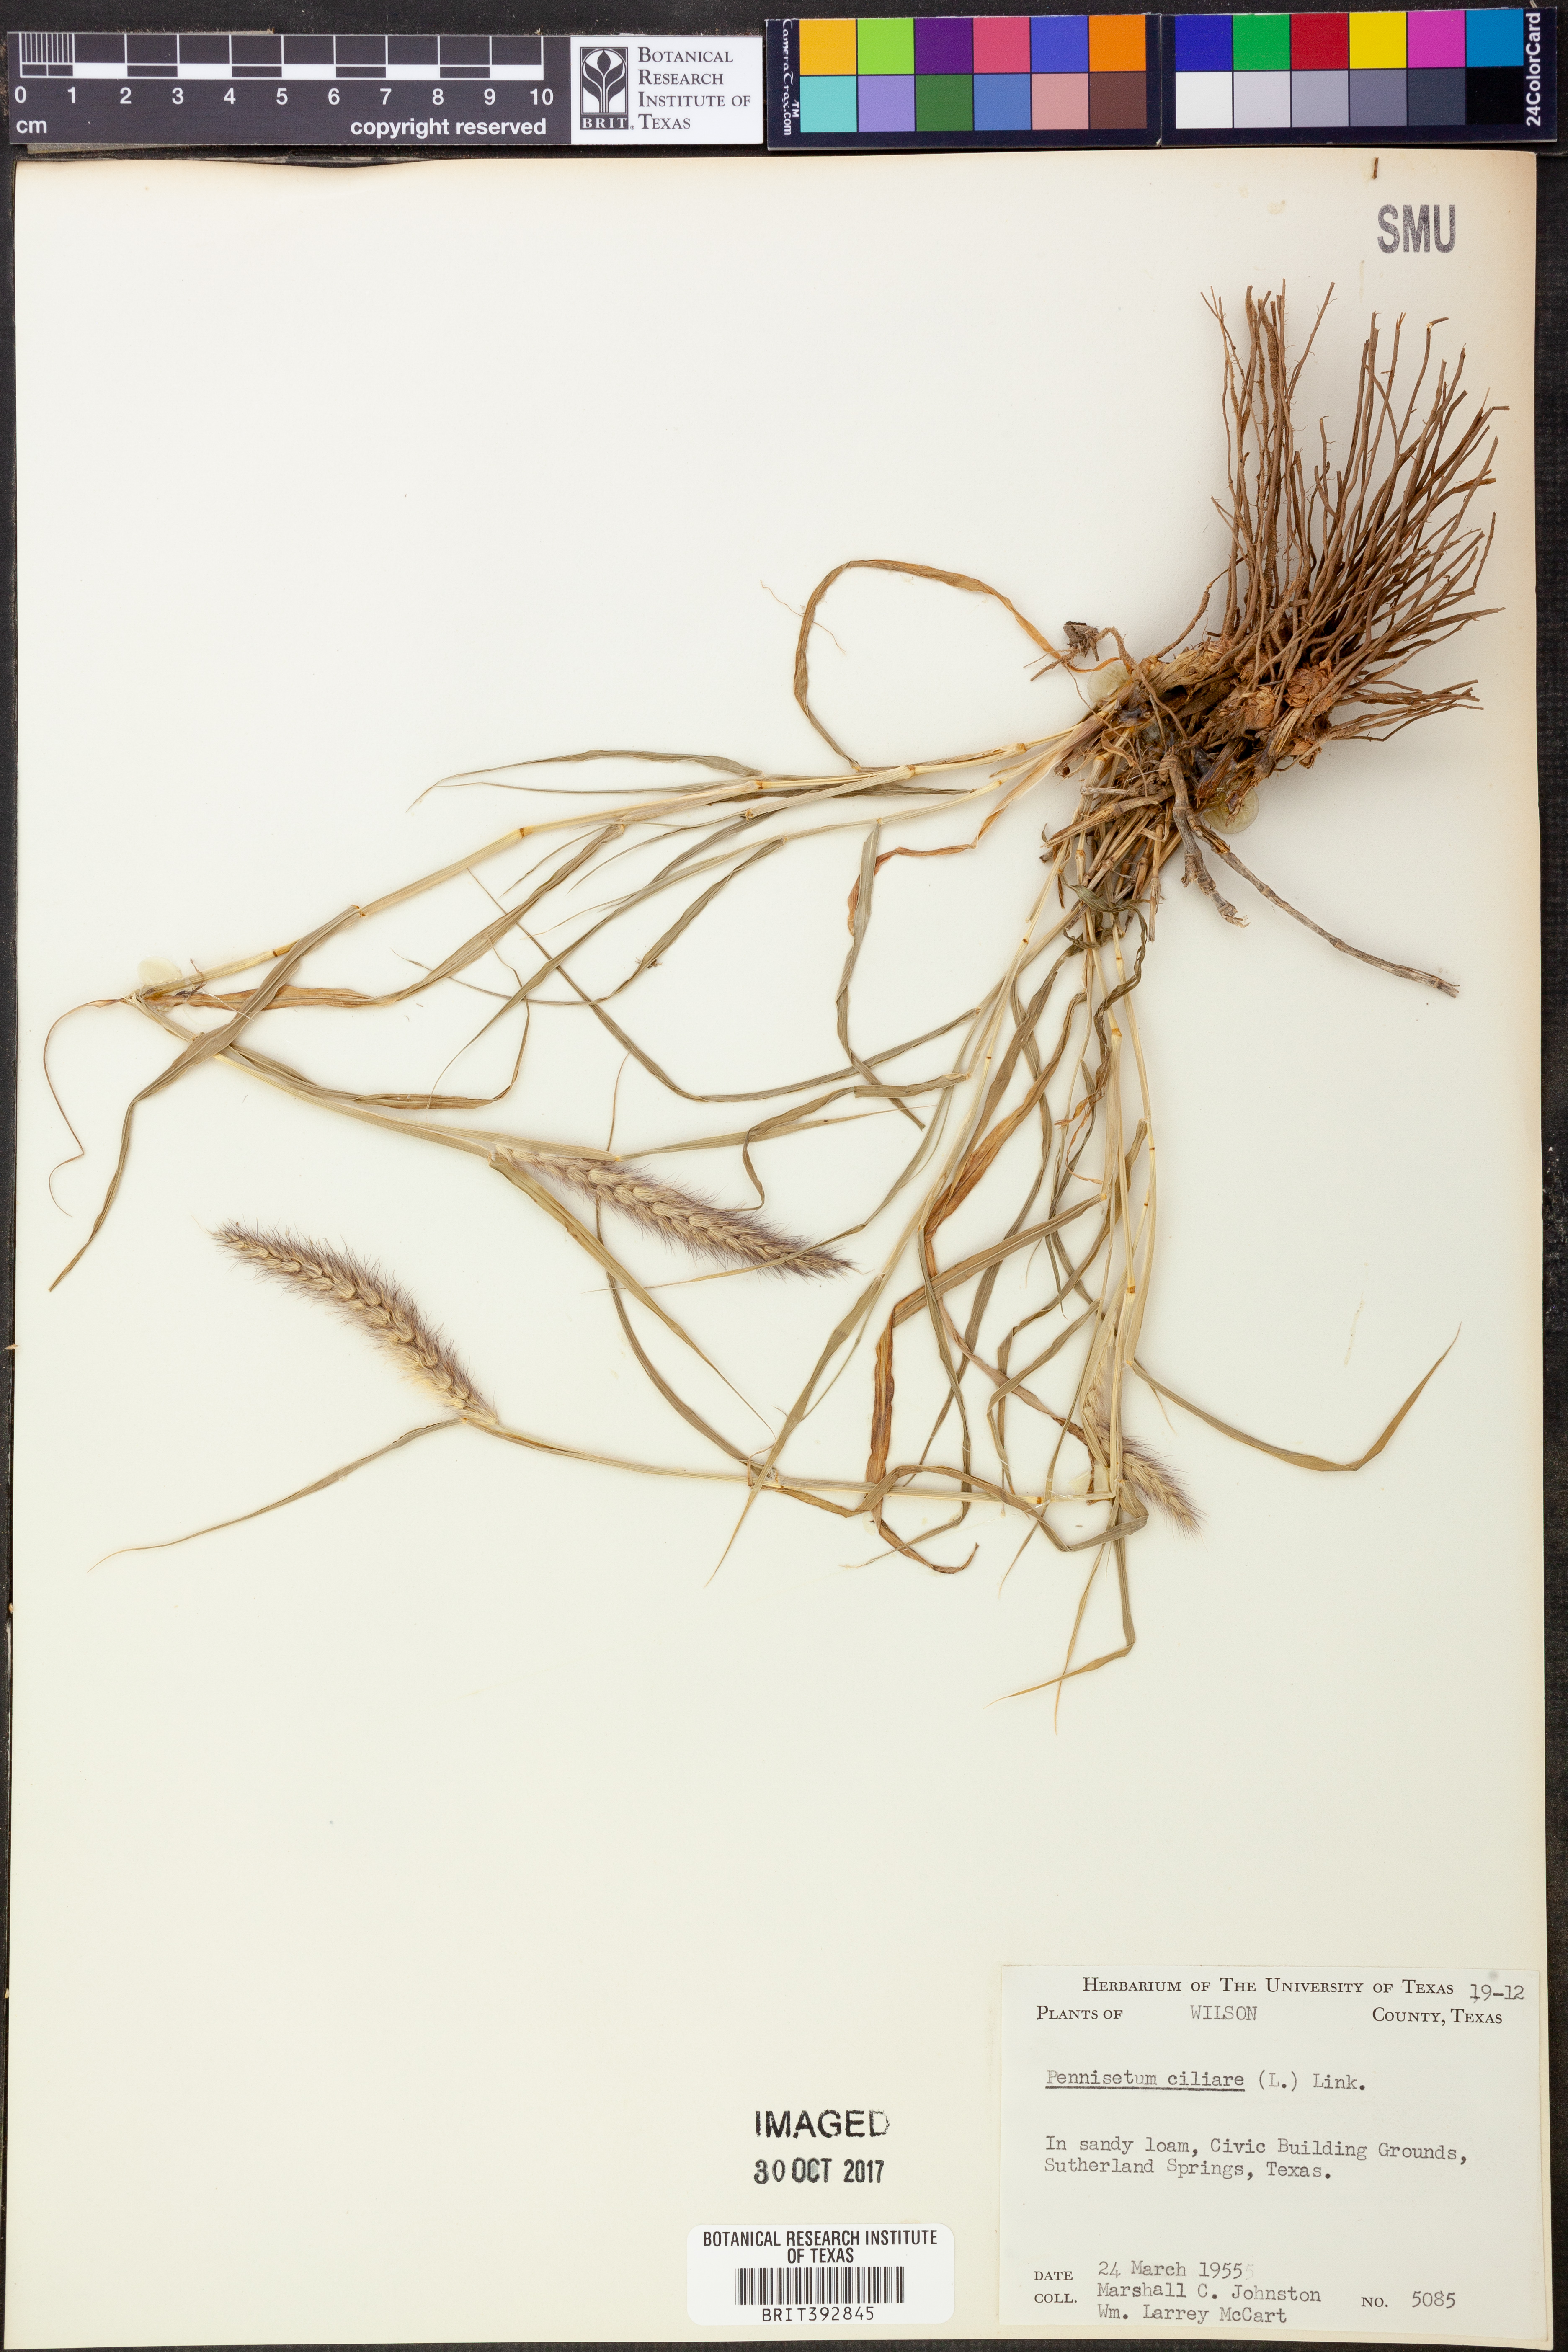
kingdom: Plantae
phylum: Tracheophyta
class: Liliopsida
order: Poales
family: Poaceae
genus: Cenchrus
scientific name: Cenchrus ciliaris
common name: Buffelgrass
